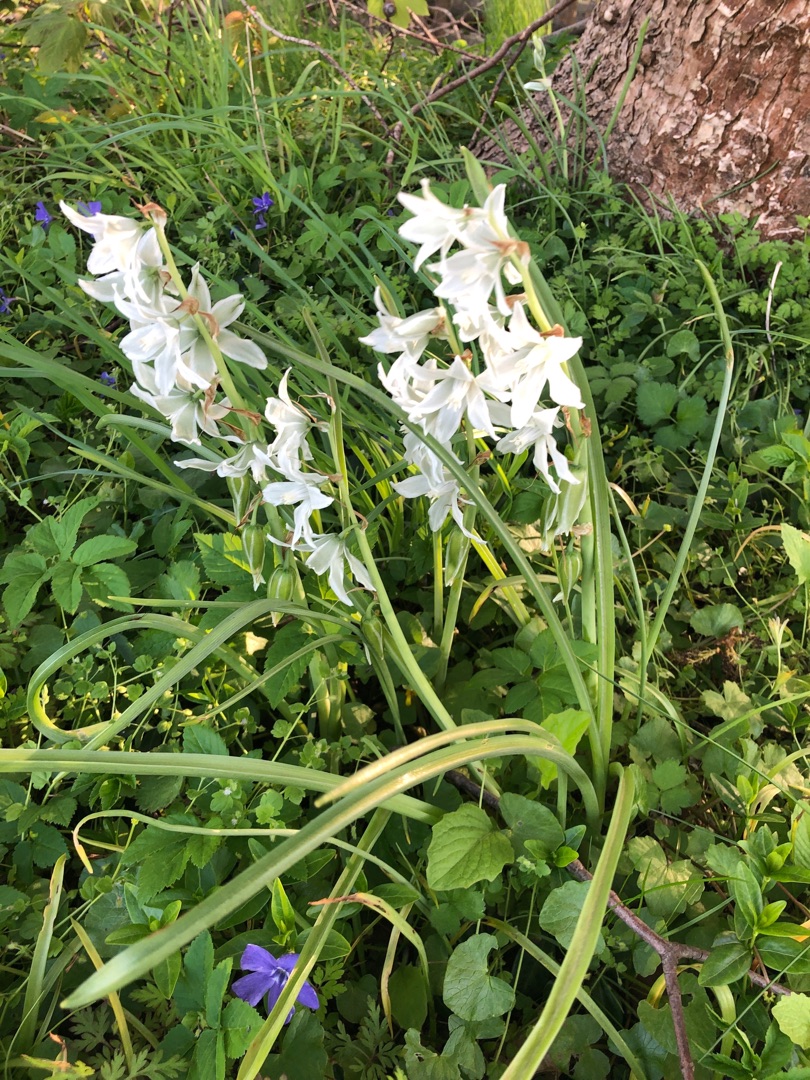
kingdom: Plantae
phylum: Tracheophyta
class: Liliopsida
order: Asparagales
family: Asparagaceae
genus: Ornithogalum
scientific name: Ornithogalum nutans
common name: Nikkende fuglemælk
